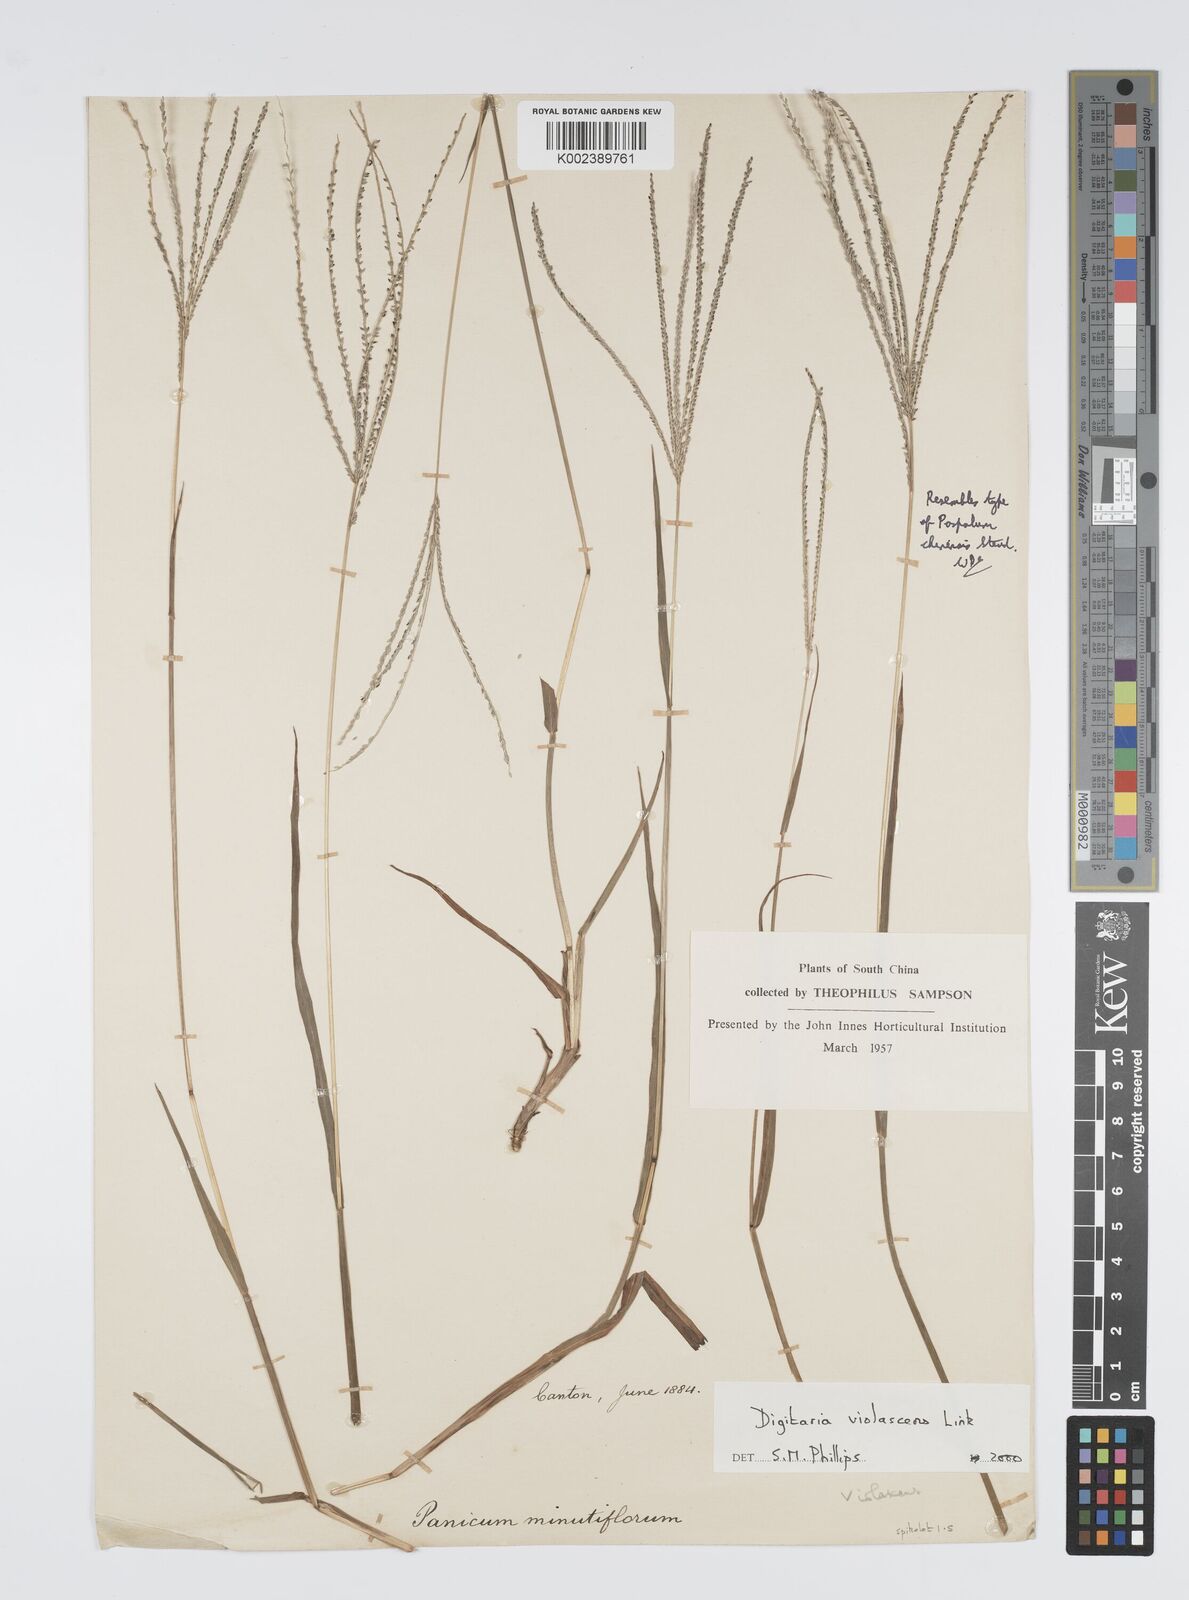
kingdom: Plantae
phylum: Tracheophyta
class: Liliopsida
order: Poales
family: Poaceae
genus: Digitaria
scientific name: Digitaria violascens
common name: Violet crabgrass
